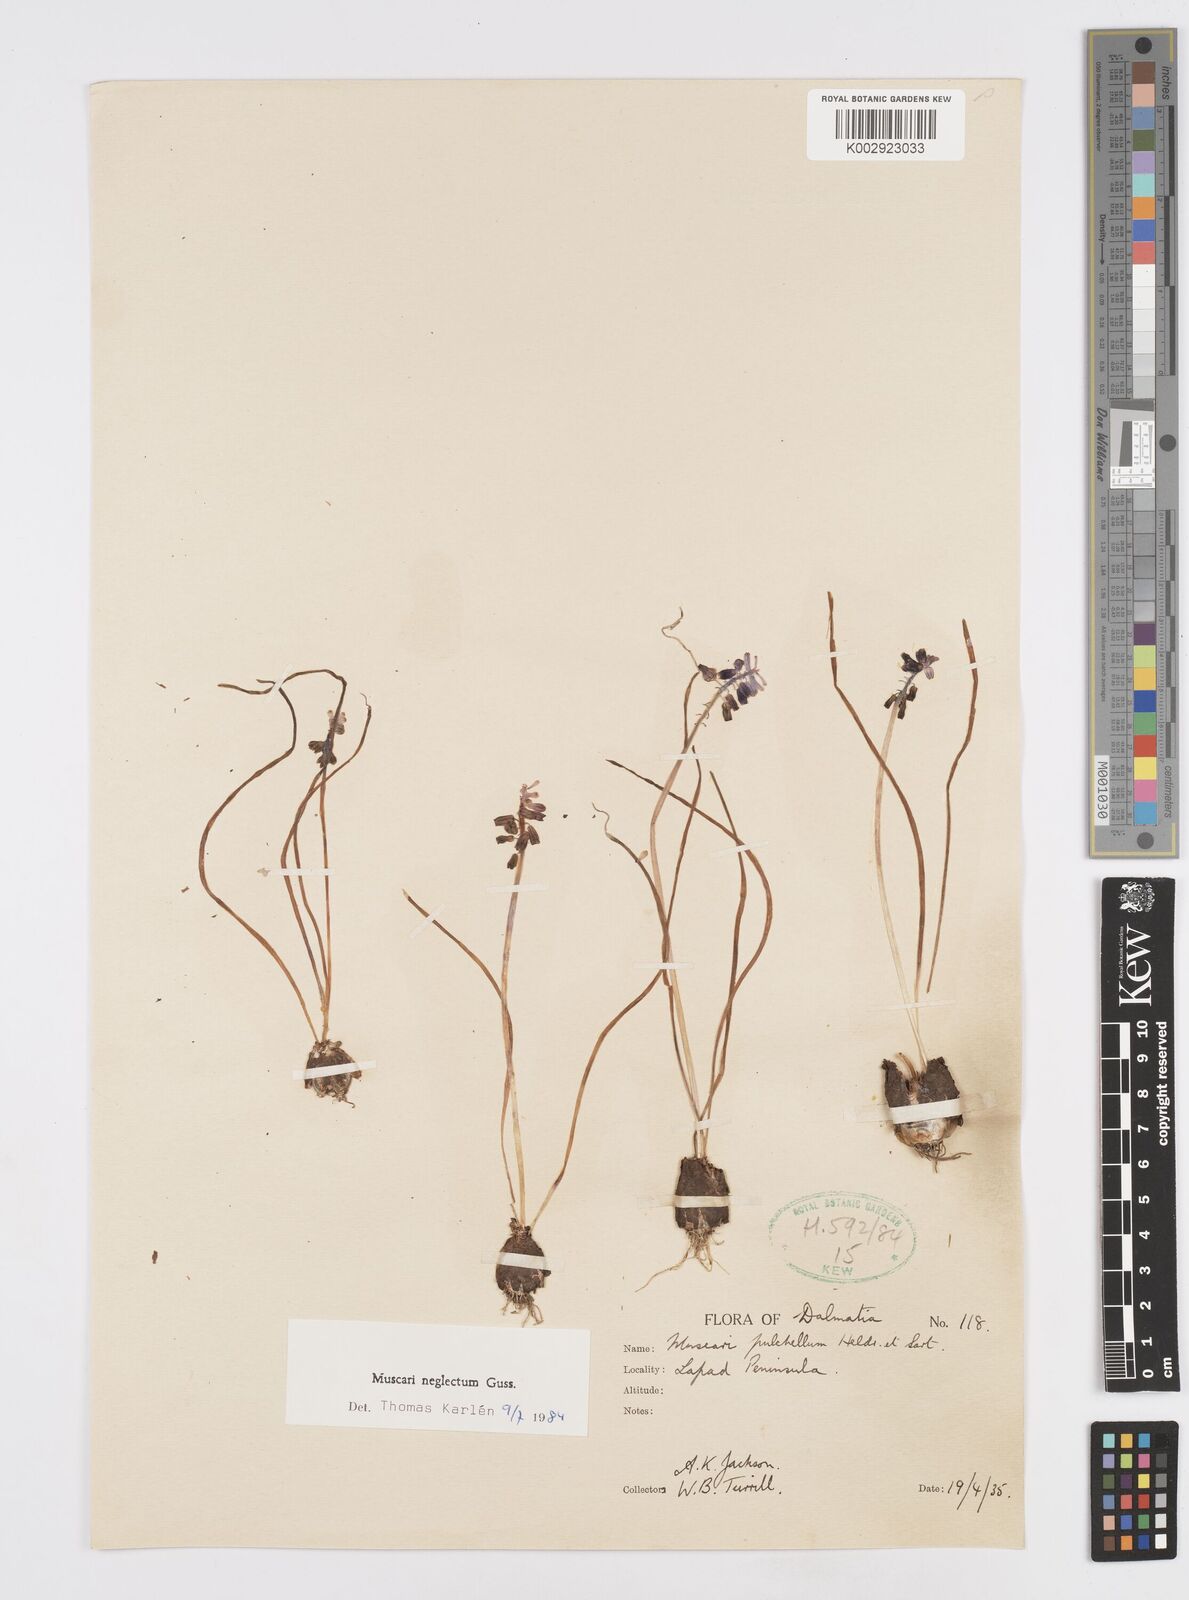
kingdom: Plantae
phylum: Tracheophyta
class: Liliopsida
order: Asparagales
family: Asparagaceae
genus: Muscari
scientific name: Muscari neglectum
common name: Grape-hyacinth
